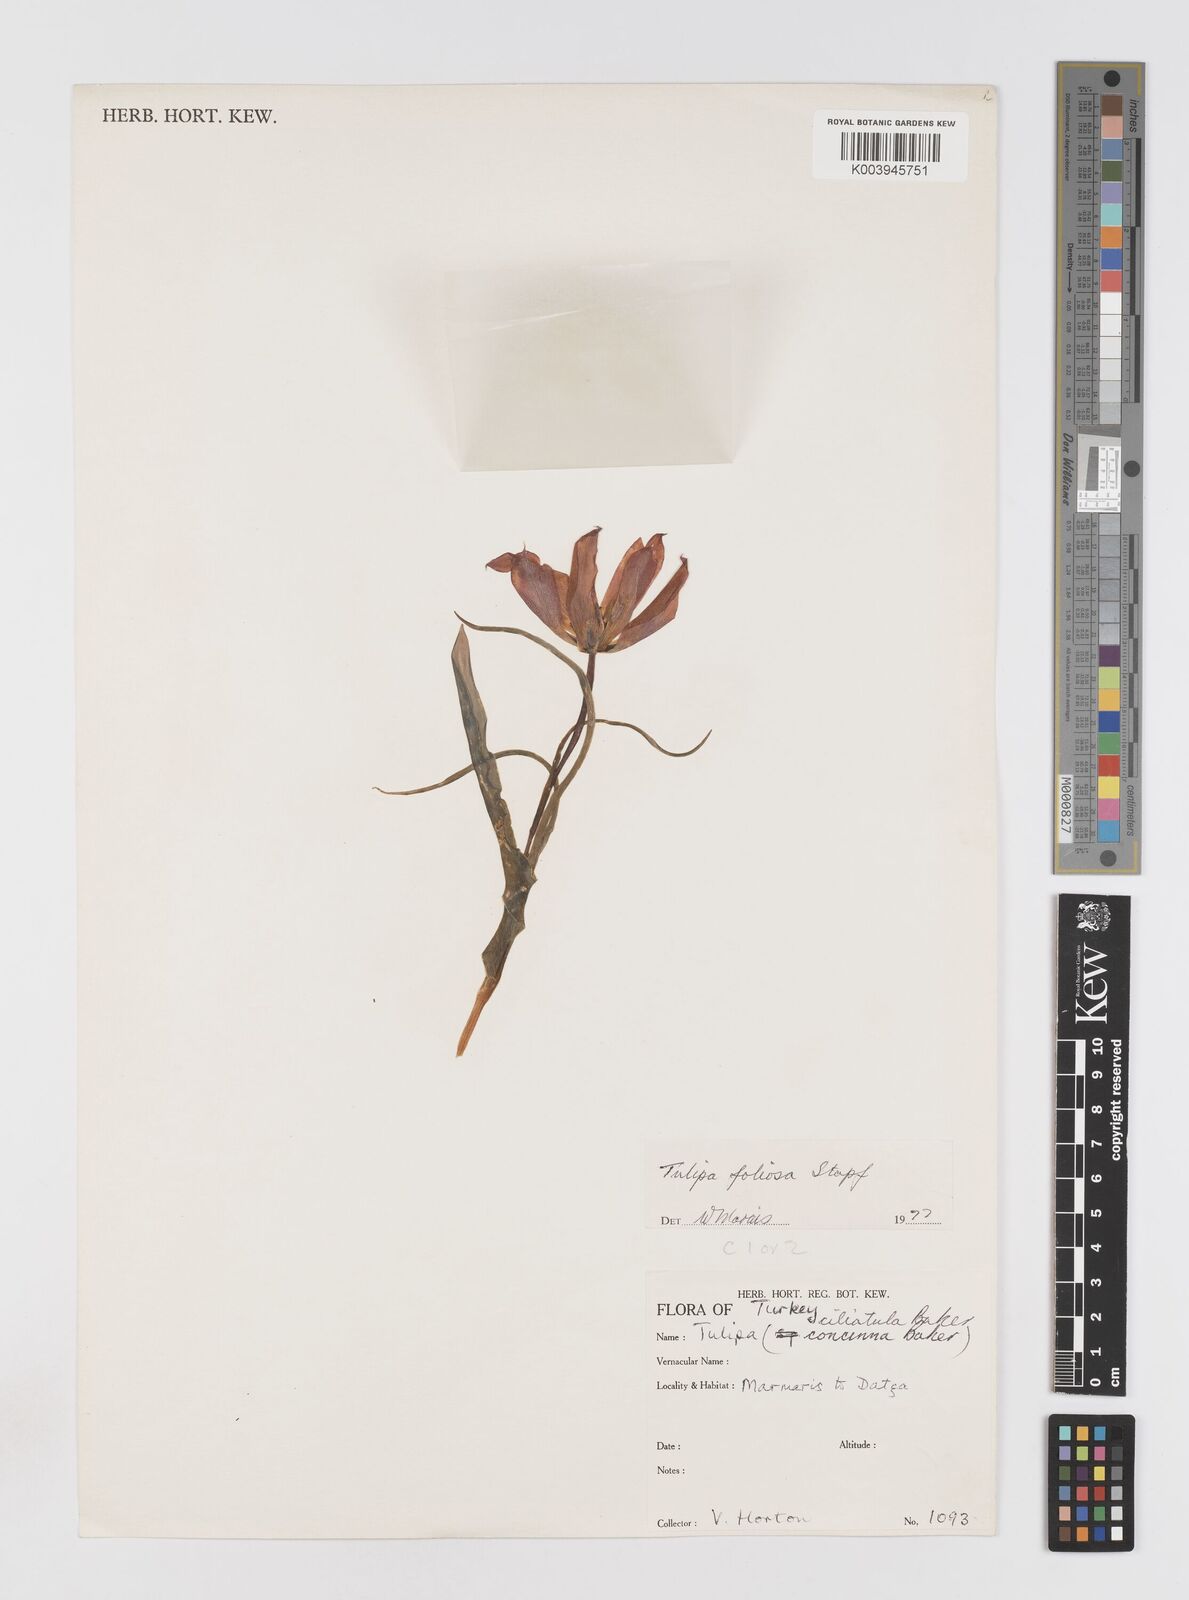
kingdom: Plantae
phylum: Tracheophyta
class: Liliopsida
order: Liliales
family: Liliaceae
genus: Tulipa
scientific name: Tulipa armena
